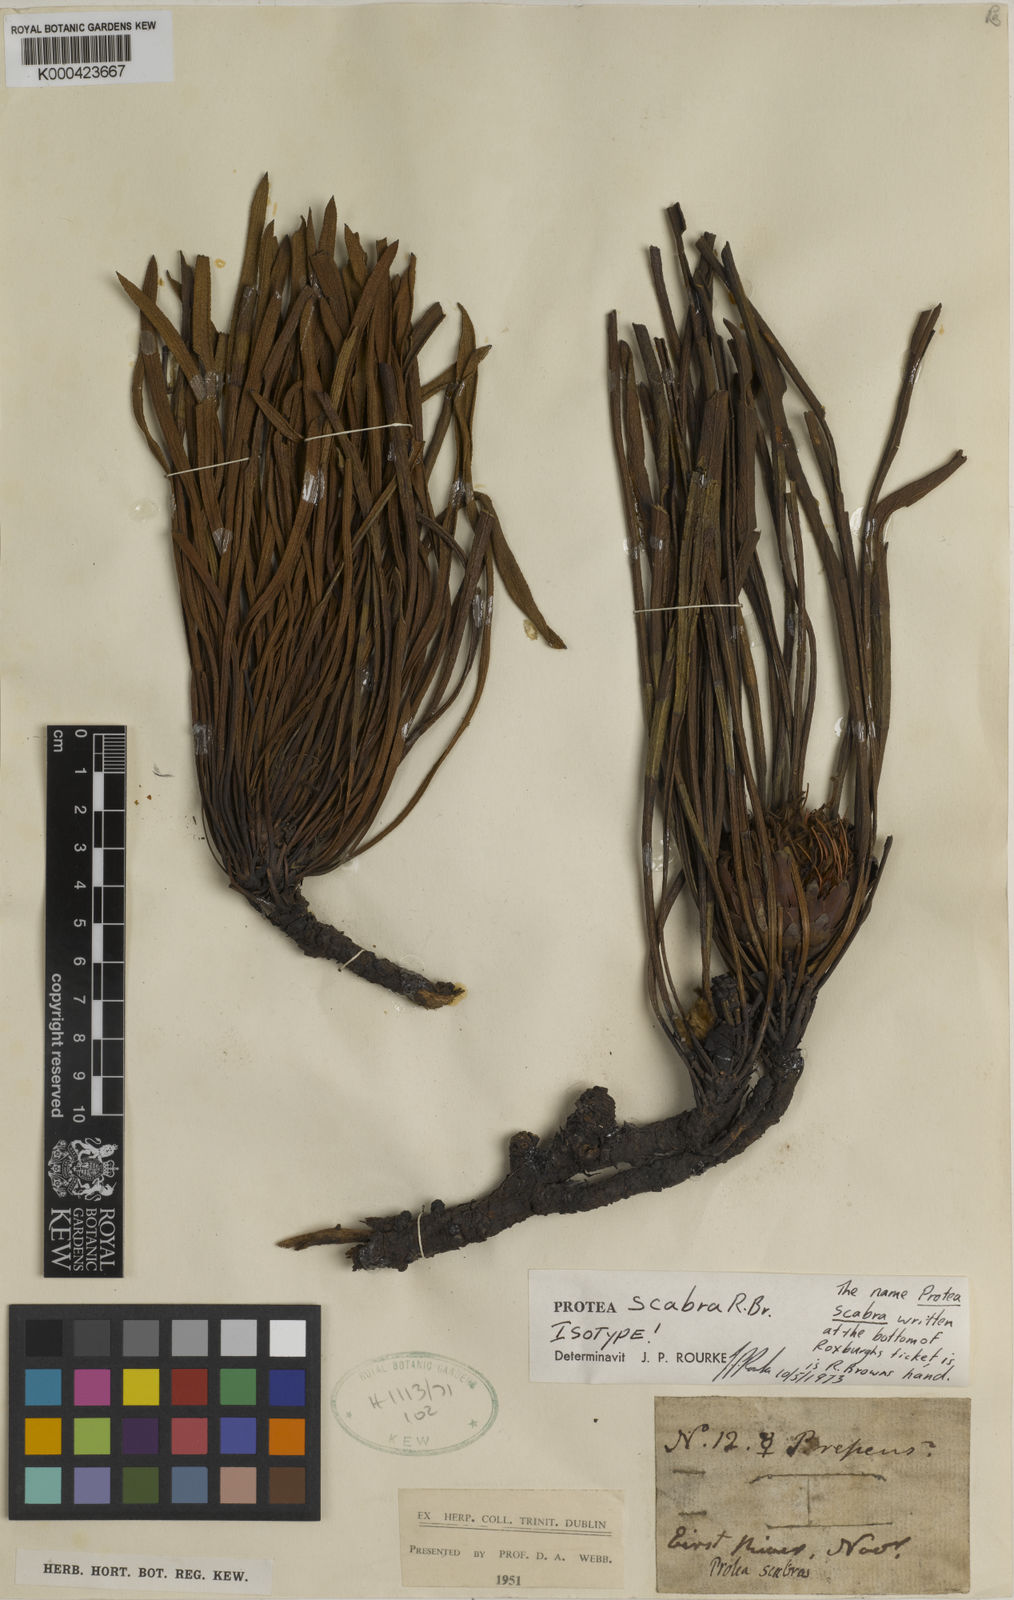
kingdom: Plantae
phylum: Tracheophyta
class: Magnoliopsida
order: Proteales
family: Proteaceae
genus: Protea
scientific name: Protea scabra
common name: Sandpaper-leaf sugarbush
